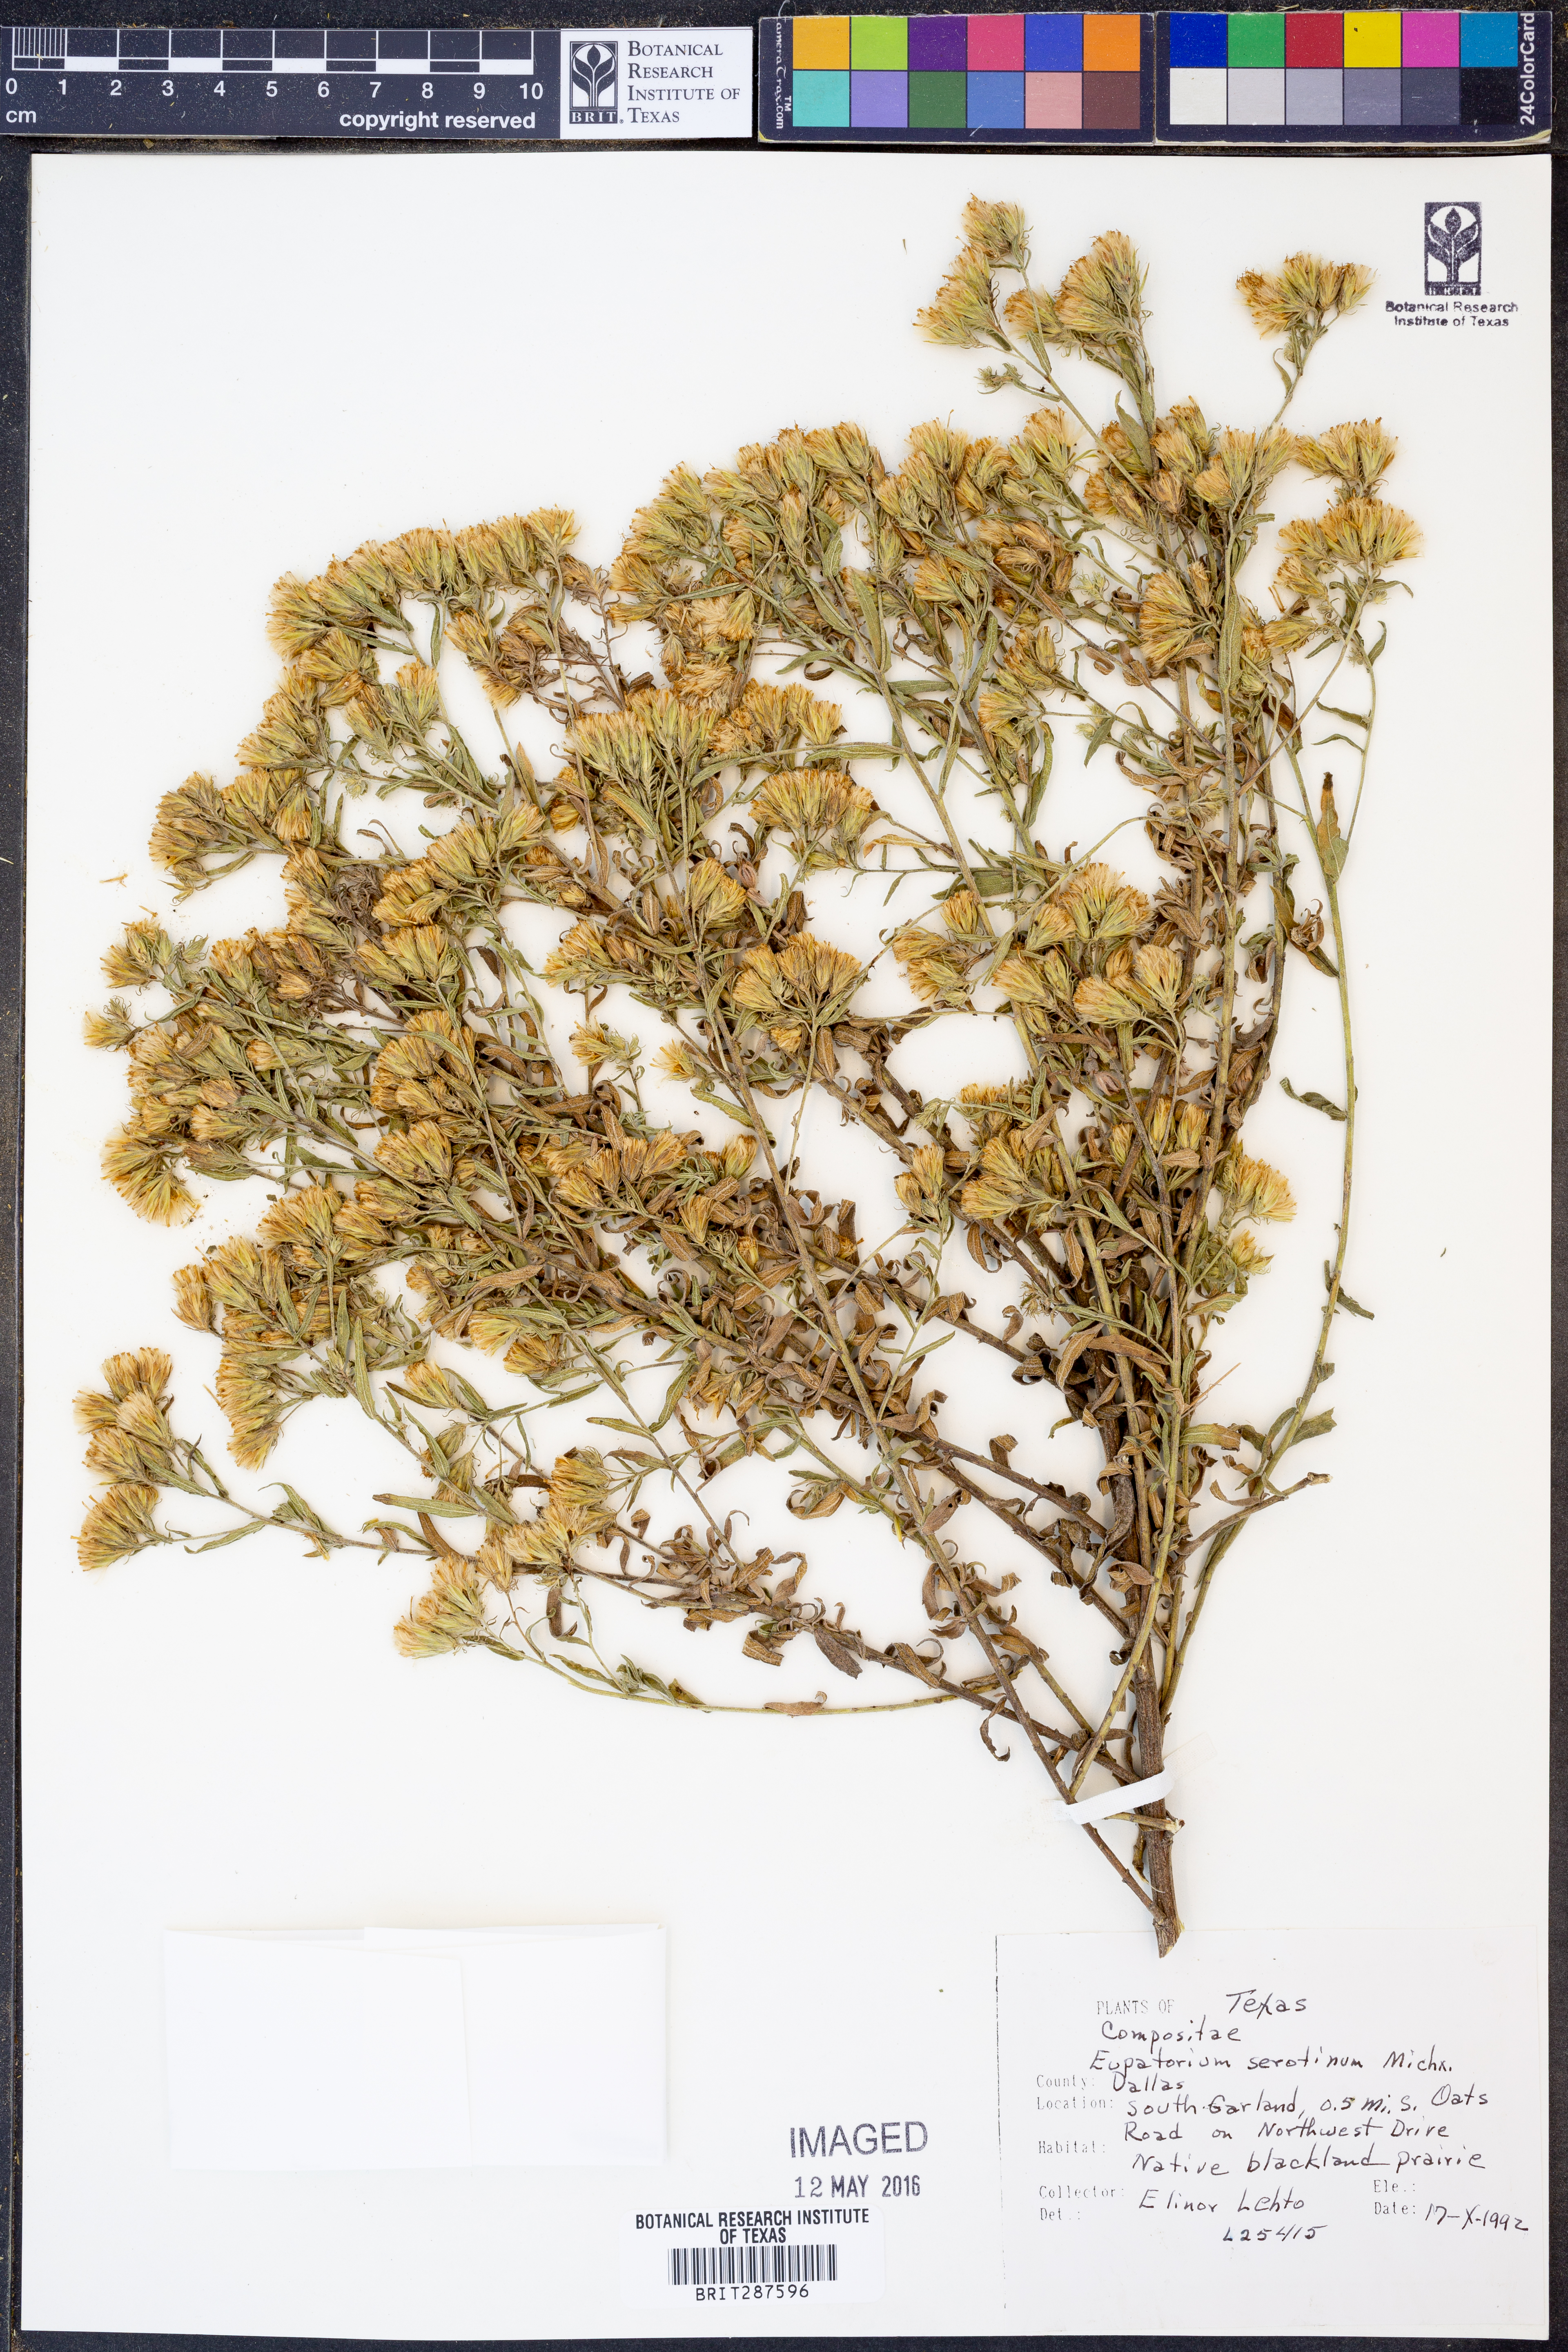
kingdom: Plantae
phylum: Tracheophyta
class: Magnoliopsida
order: Asterales
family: Asteraceae
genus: Eupatorium
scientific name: Eupatorium serotinum
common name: Late boneset
